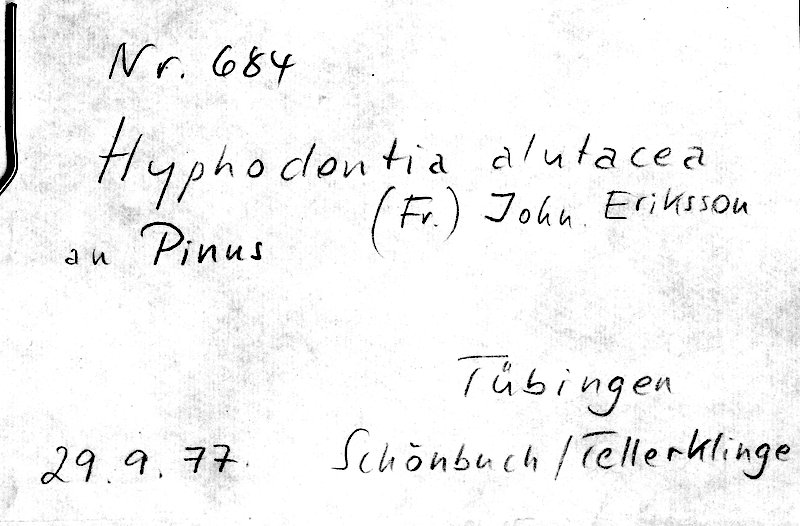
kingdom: Plantae
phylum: Tracheophyta
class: Pinopsida
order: Pinales
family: Pinaceae
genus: Pinus
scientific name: Pinus
